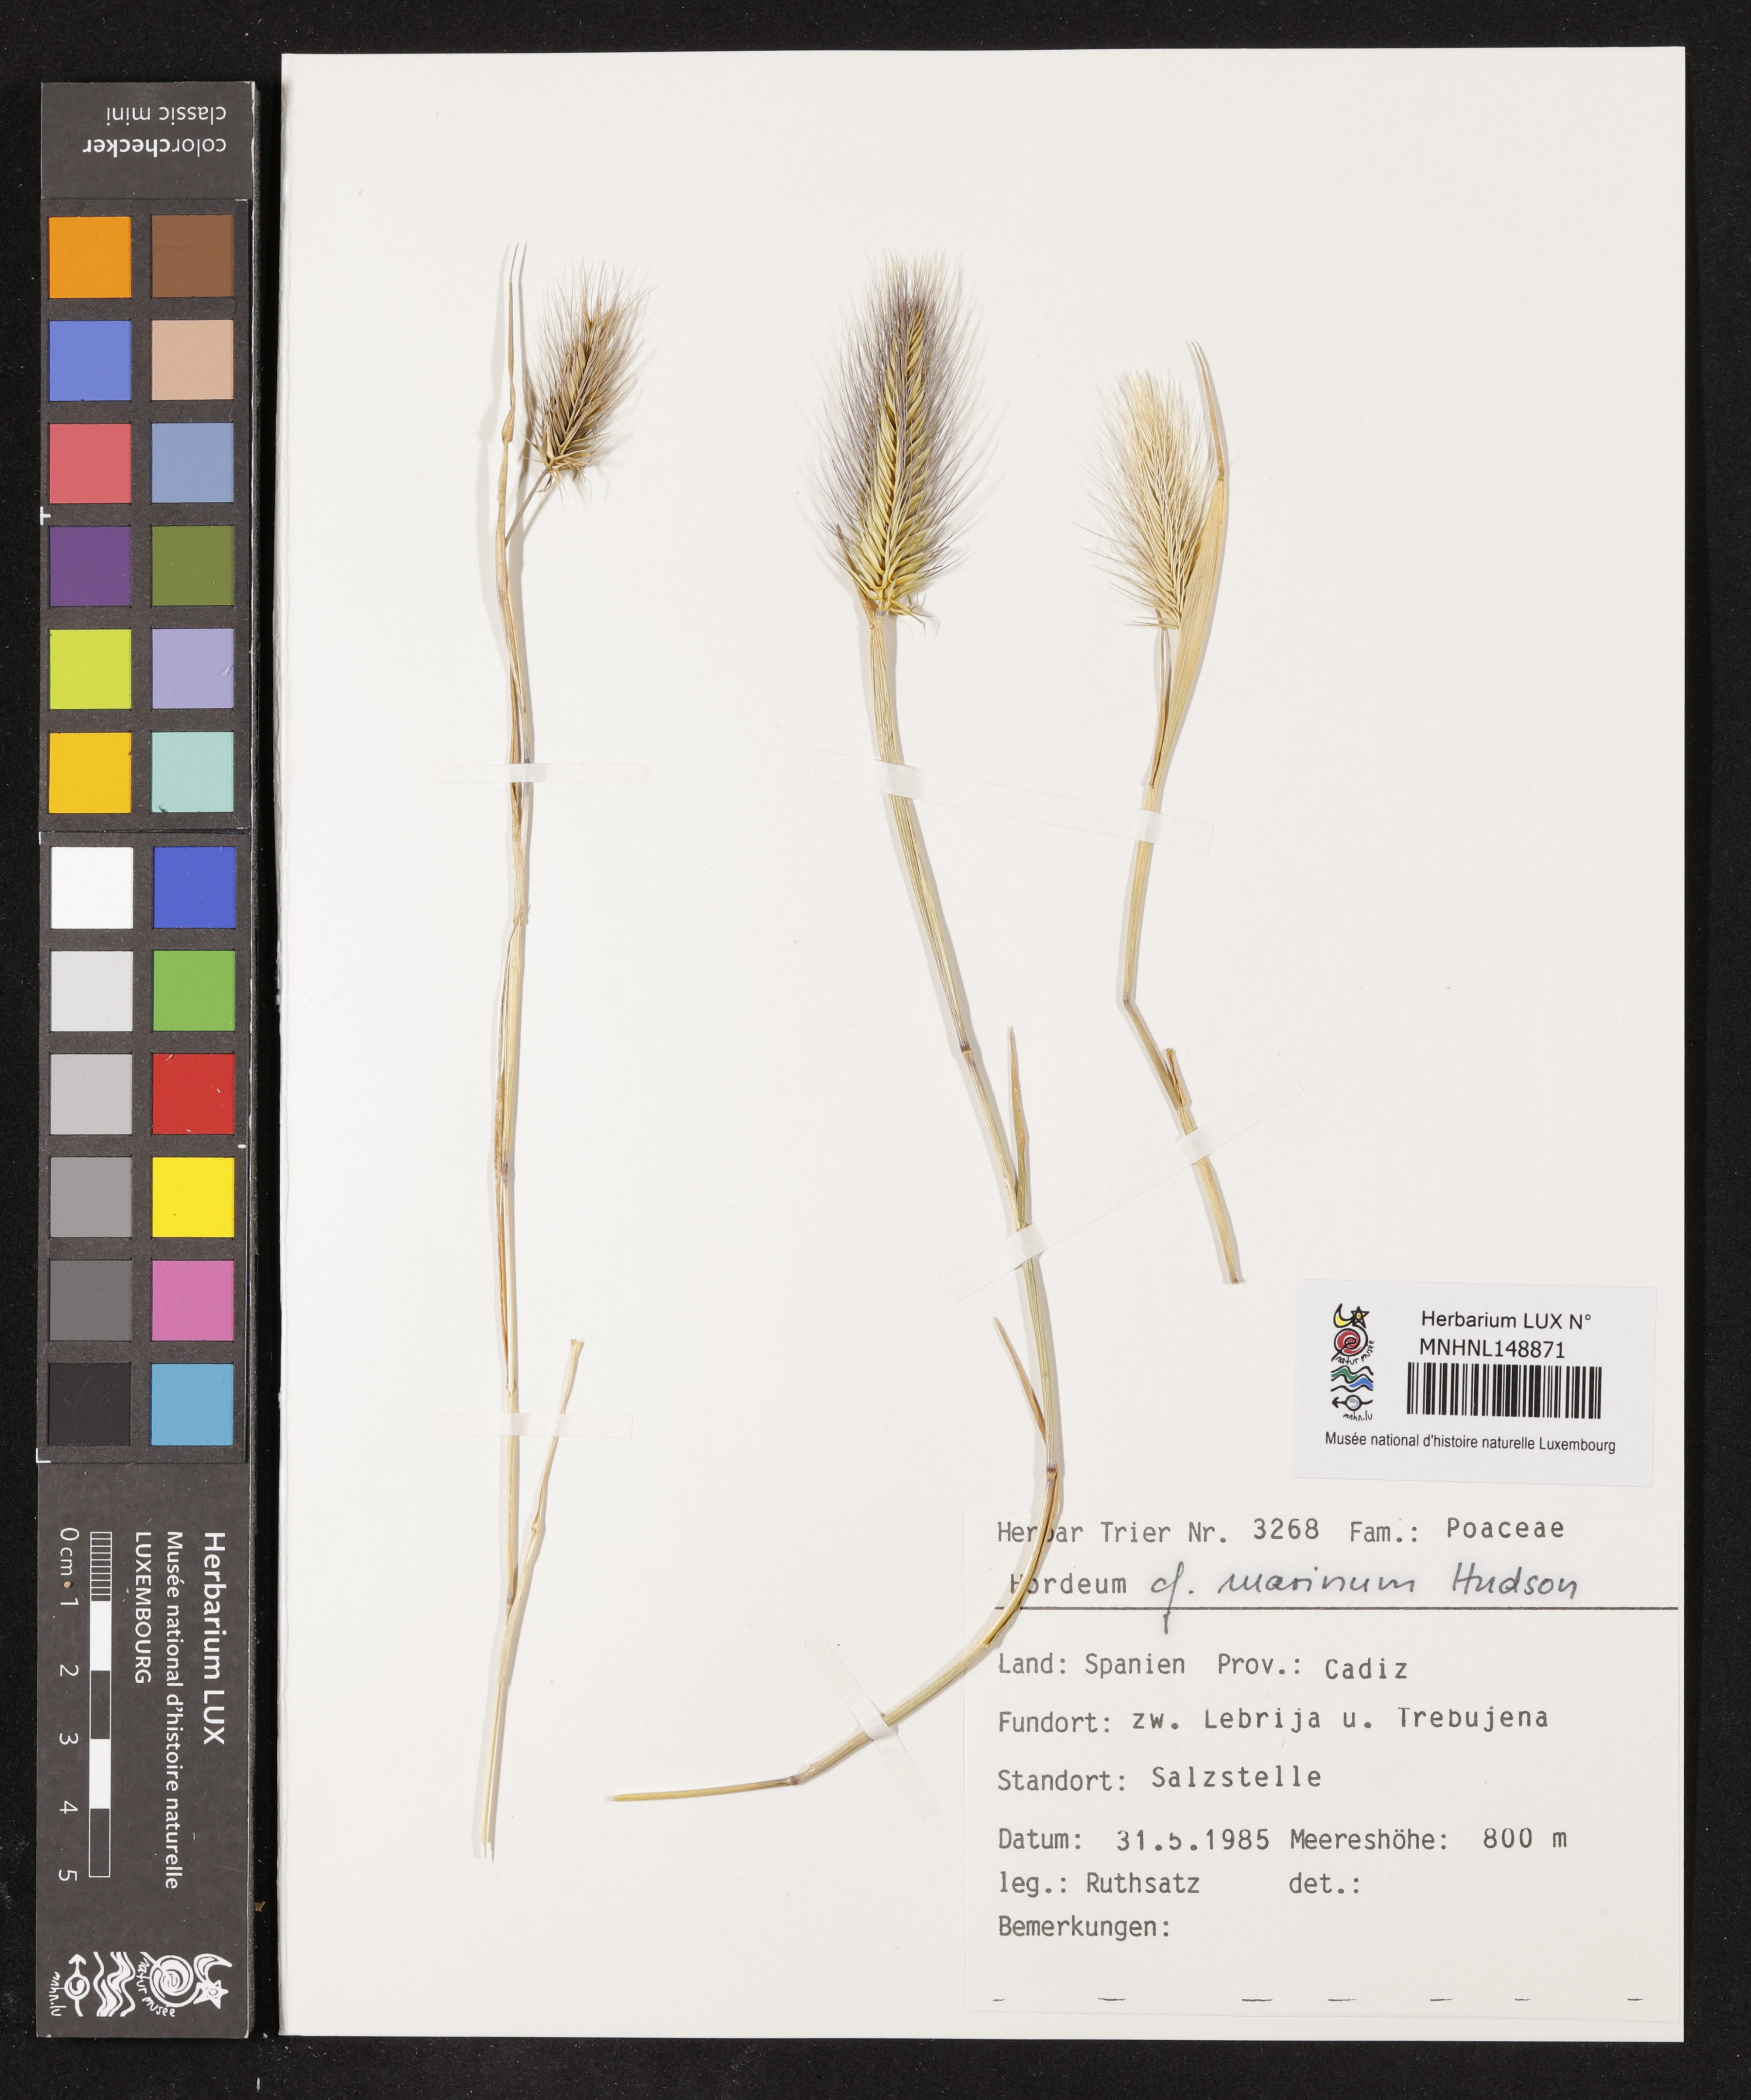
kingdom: Plantae
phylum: Tracheophyta
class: Liliopsida
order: Poales
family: Poaceae
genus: Hordeum
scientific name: Hordeum marinum
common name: Sea barley
